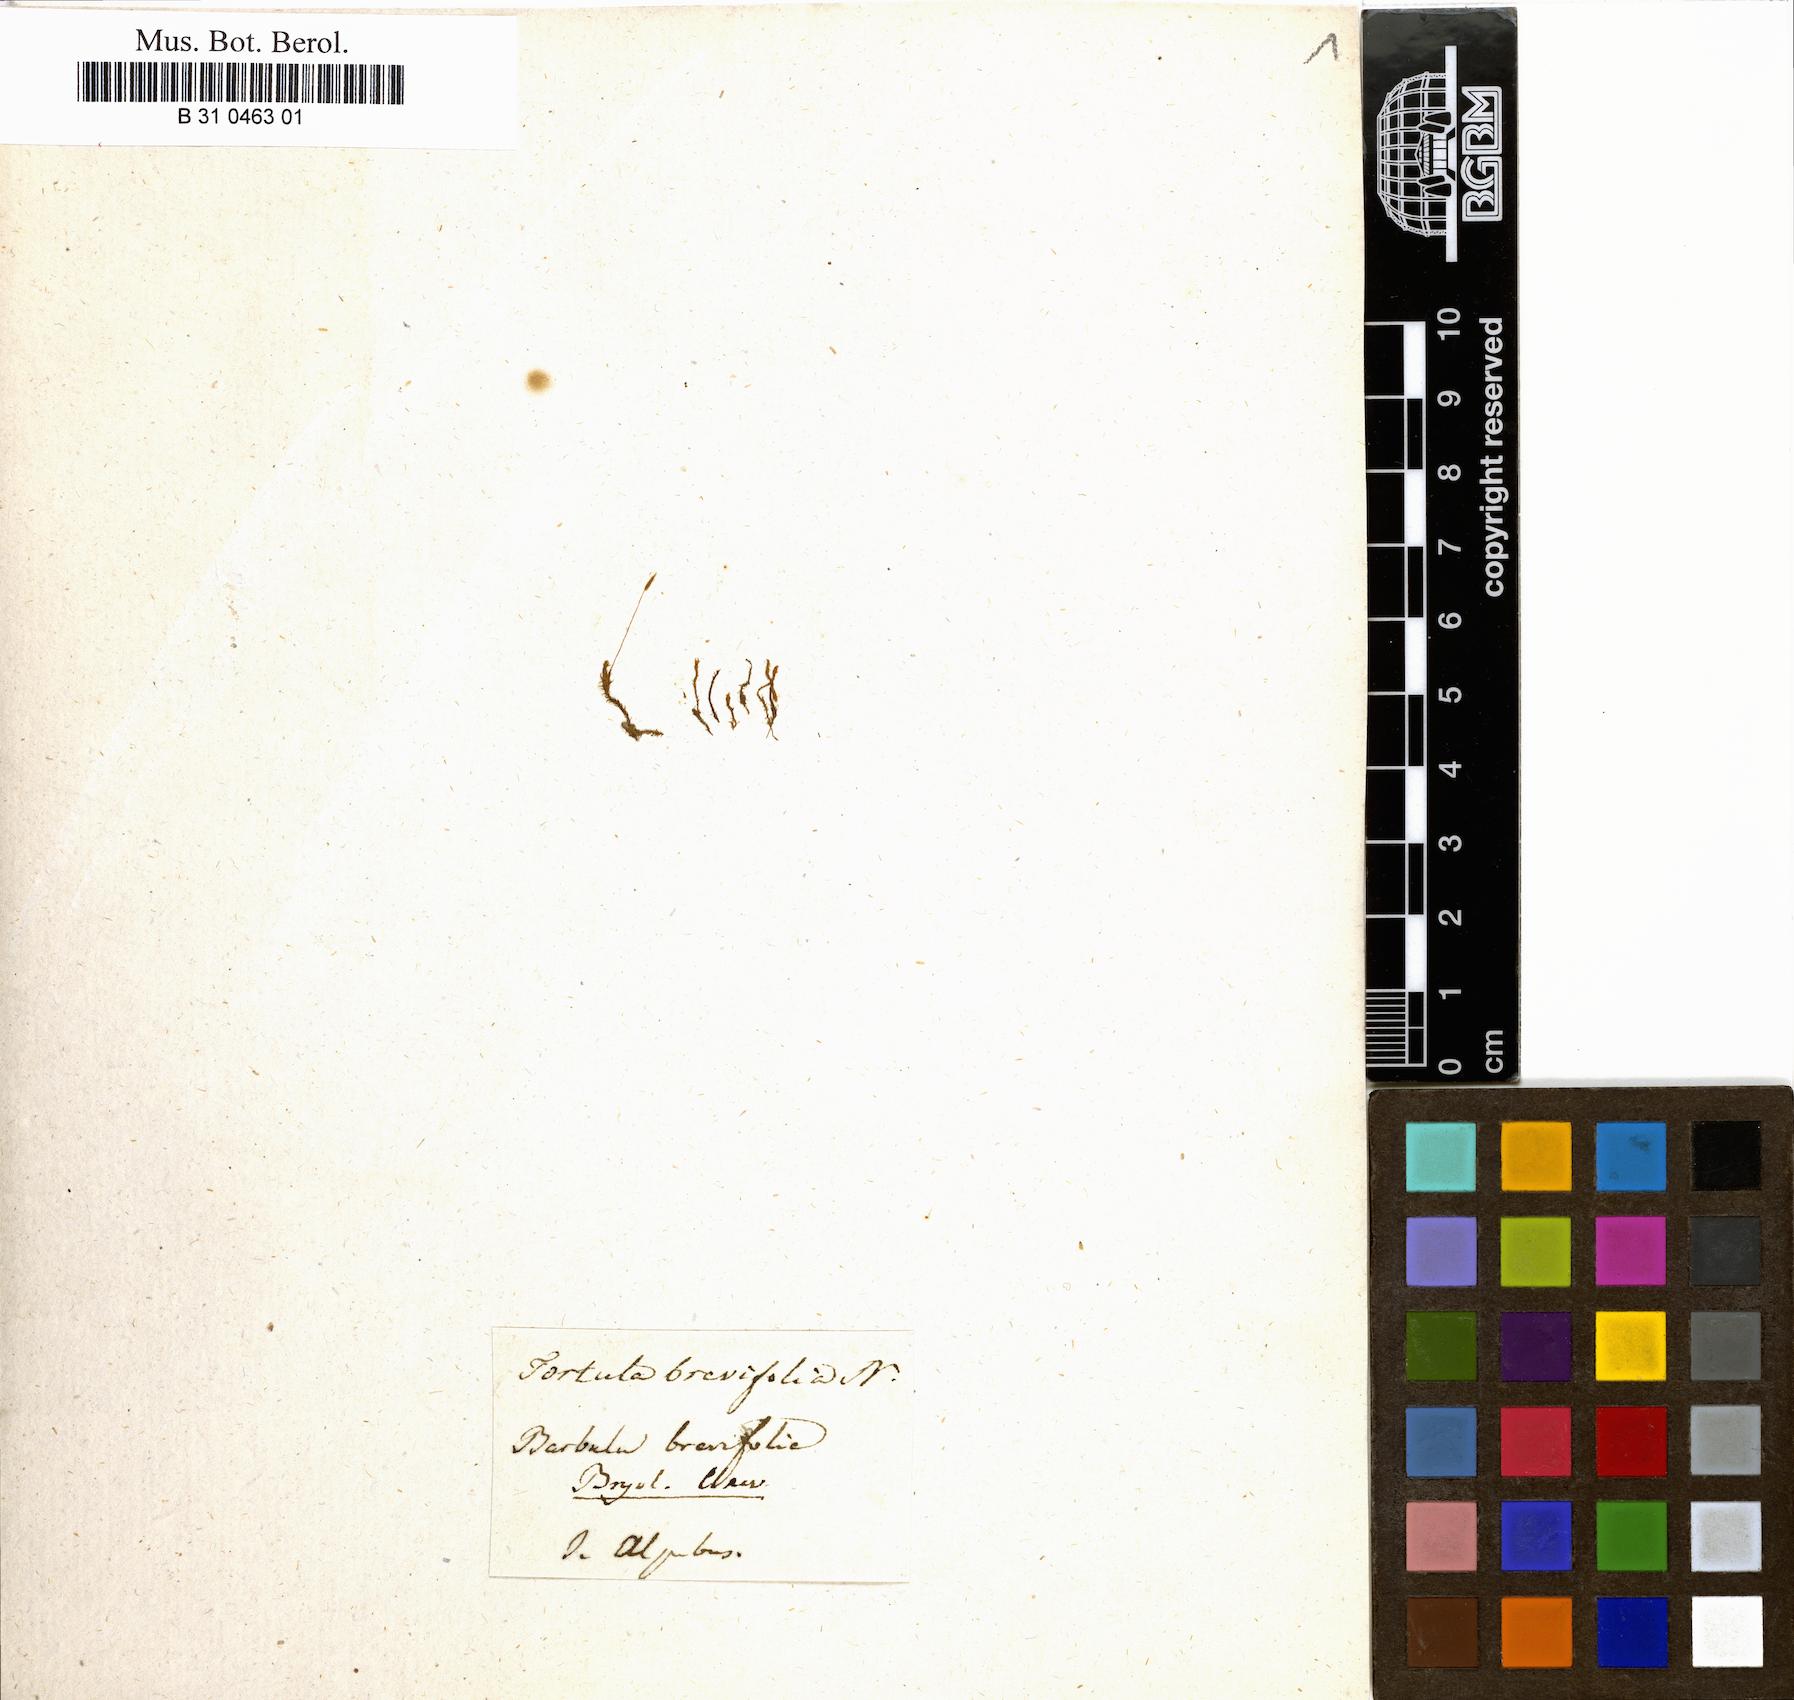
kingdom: Plantae
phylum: Bryophyta
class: Bryopsida
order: Pottiales
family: Pottiaceae
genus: Geheebia
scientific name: Geheebia fallax
